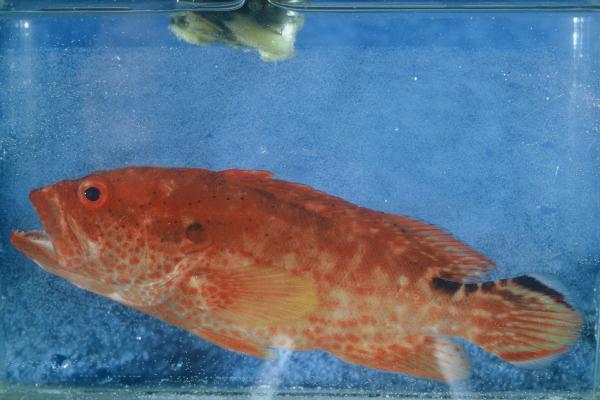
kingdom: Animalia
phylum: Chordata
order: Perciformes
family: Serranidae
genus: Cephalopholis
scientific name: Cephalopholis leopardus
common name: Leopard hind
